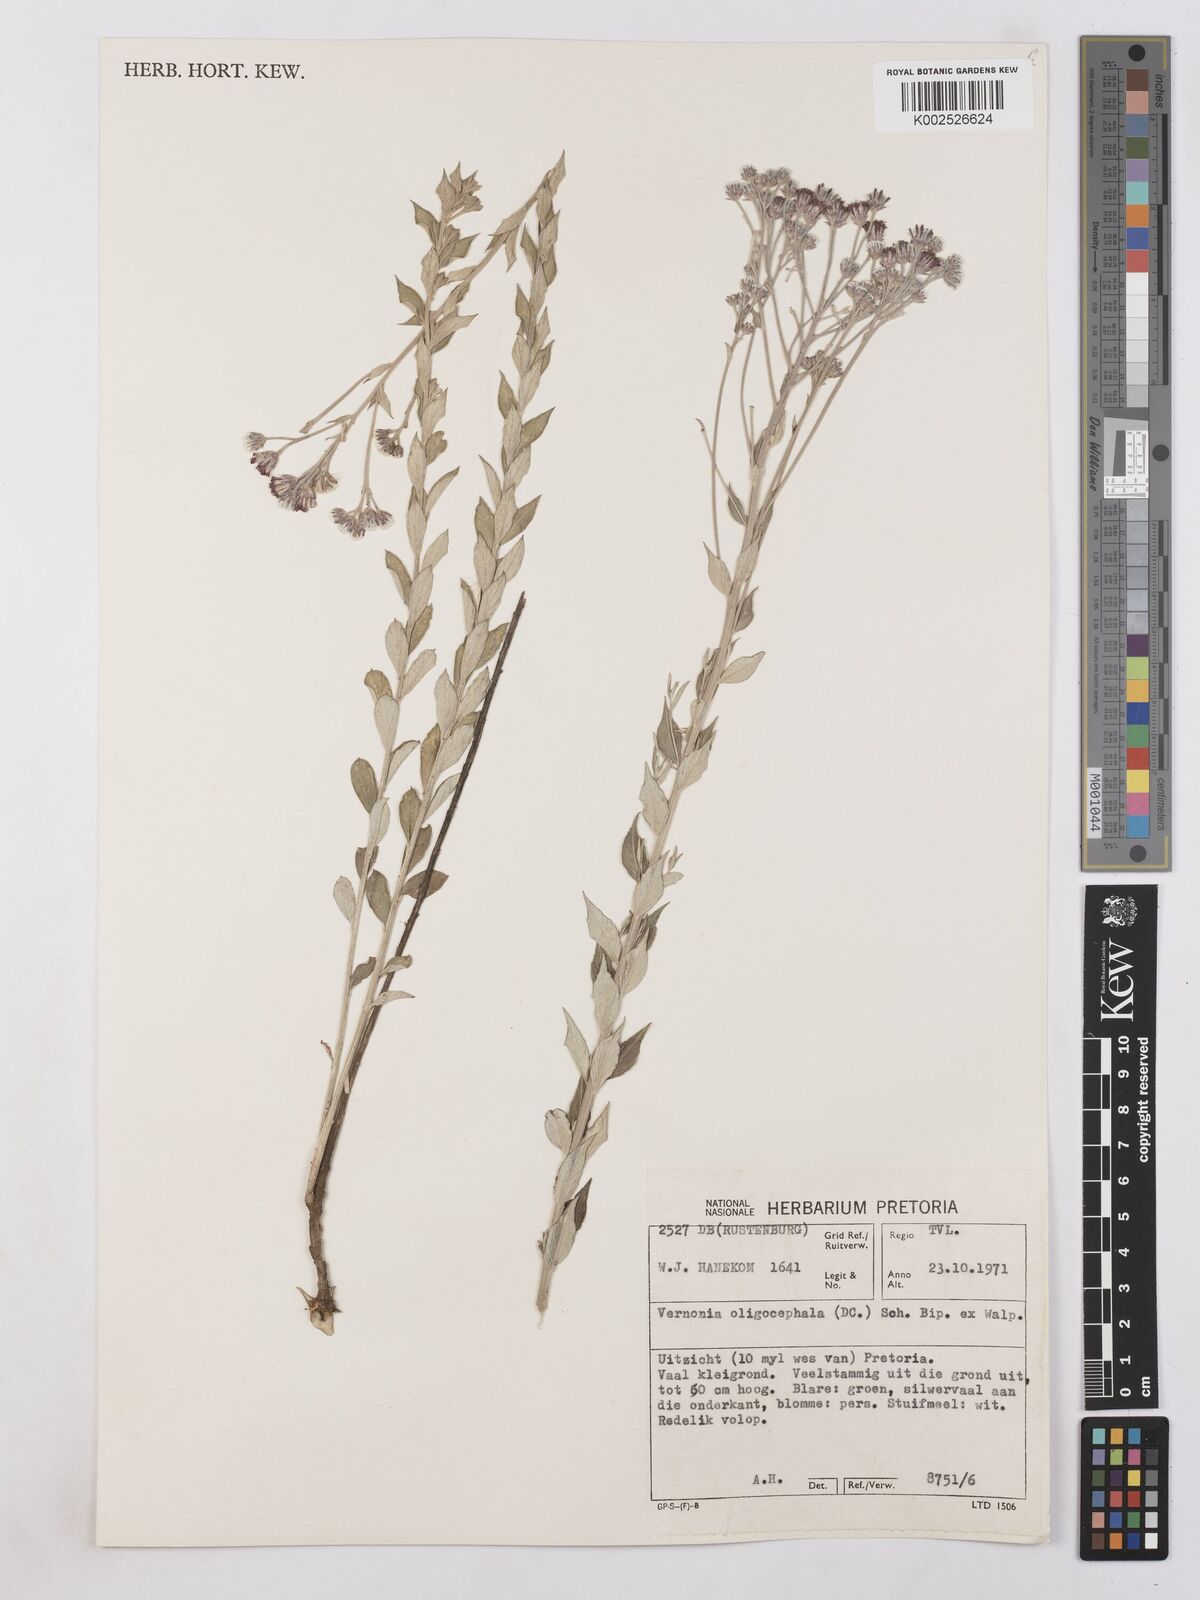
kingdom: Plantae
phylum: Tracheophyta
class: Magnoliopsida
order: Asterales
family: Asteraceae
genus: Hilliardiella
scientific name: Hilliardiella oligocephala
